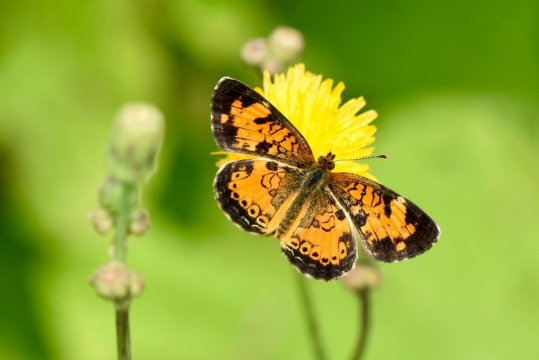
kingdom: Animalia
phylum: Arthropoda
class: Insecta
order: Lepidoptera
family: Nymphalidae
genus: Phyciodes
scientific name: Phyciodes tharos
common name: Pearl Crescent
